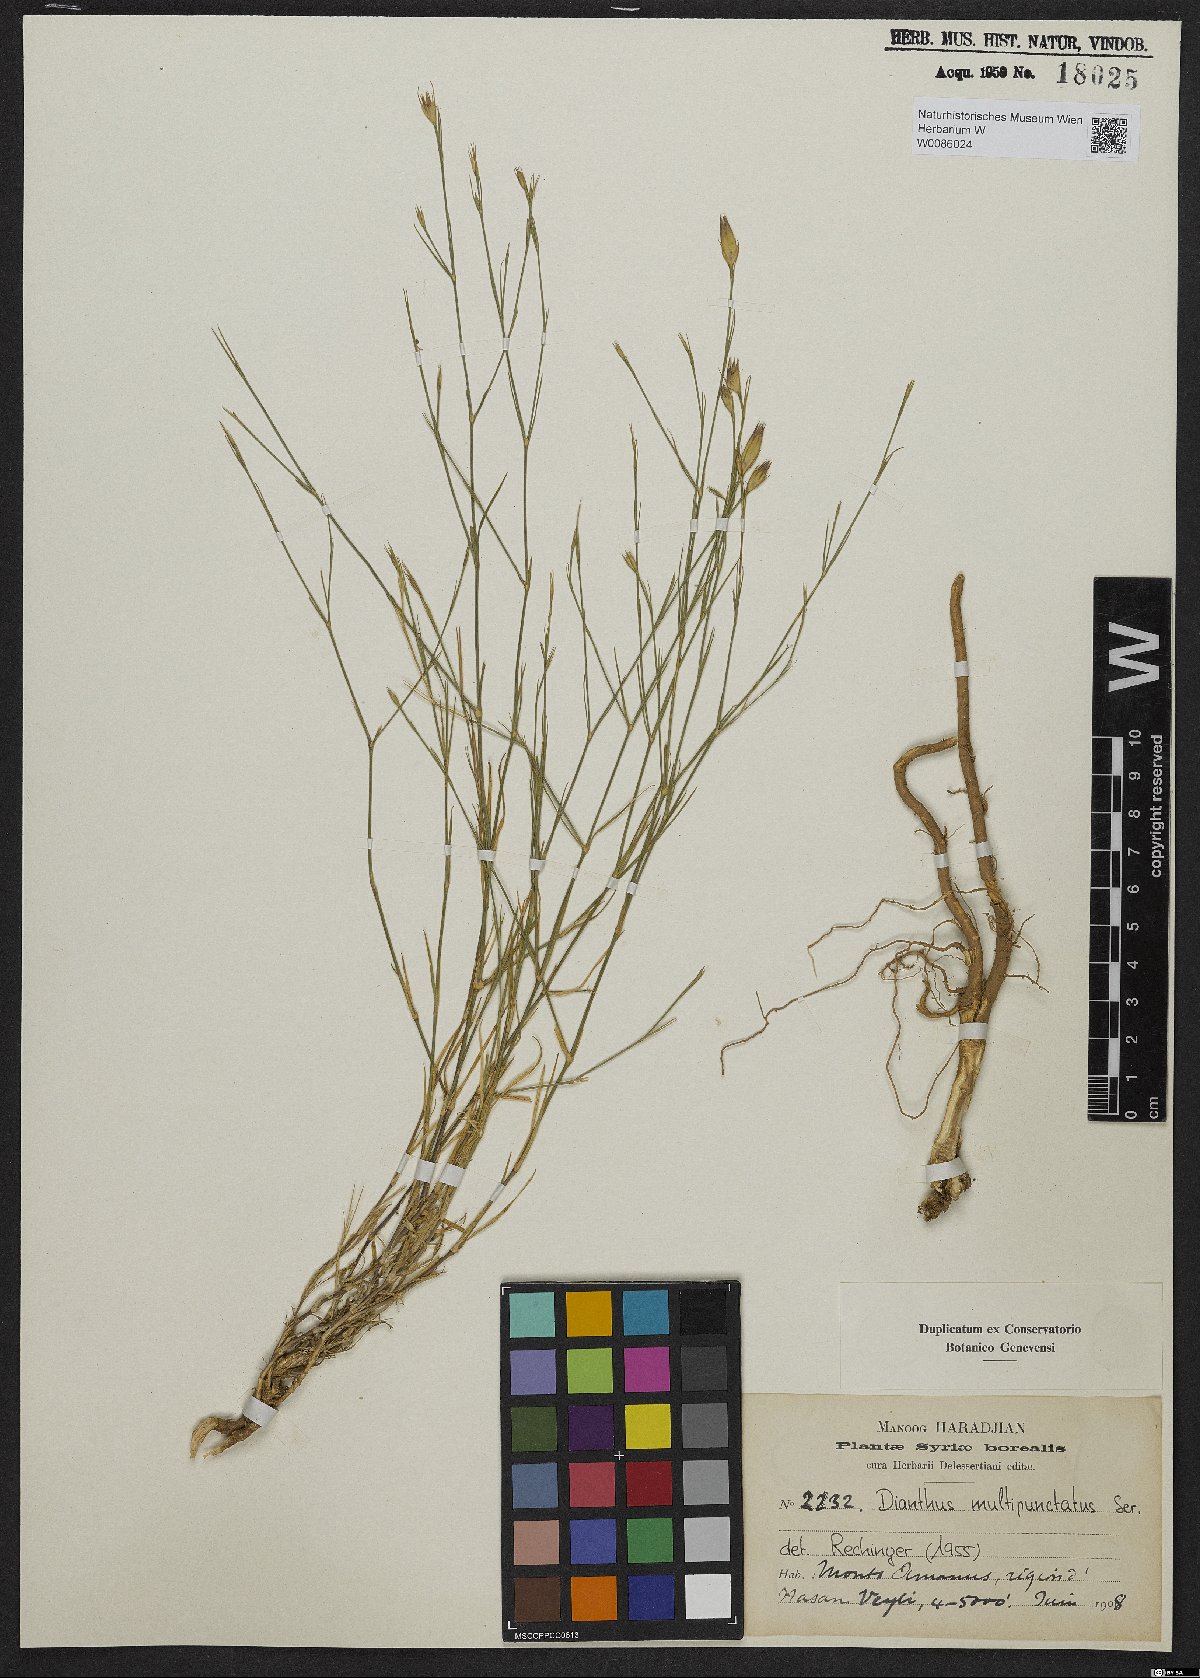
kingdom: Plantae
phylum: Tracheophyta
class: Magnoliopsida
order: Caryophyllales
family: Caryophyllaceae
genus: Dianthus
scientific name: Dianthus strictus
